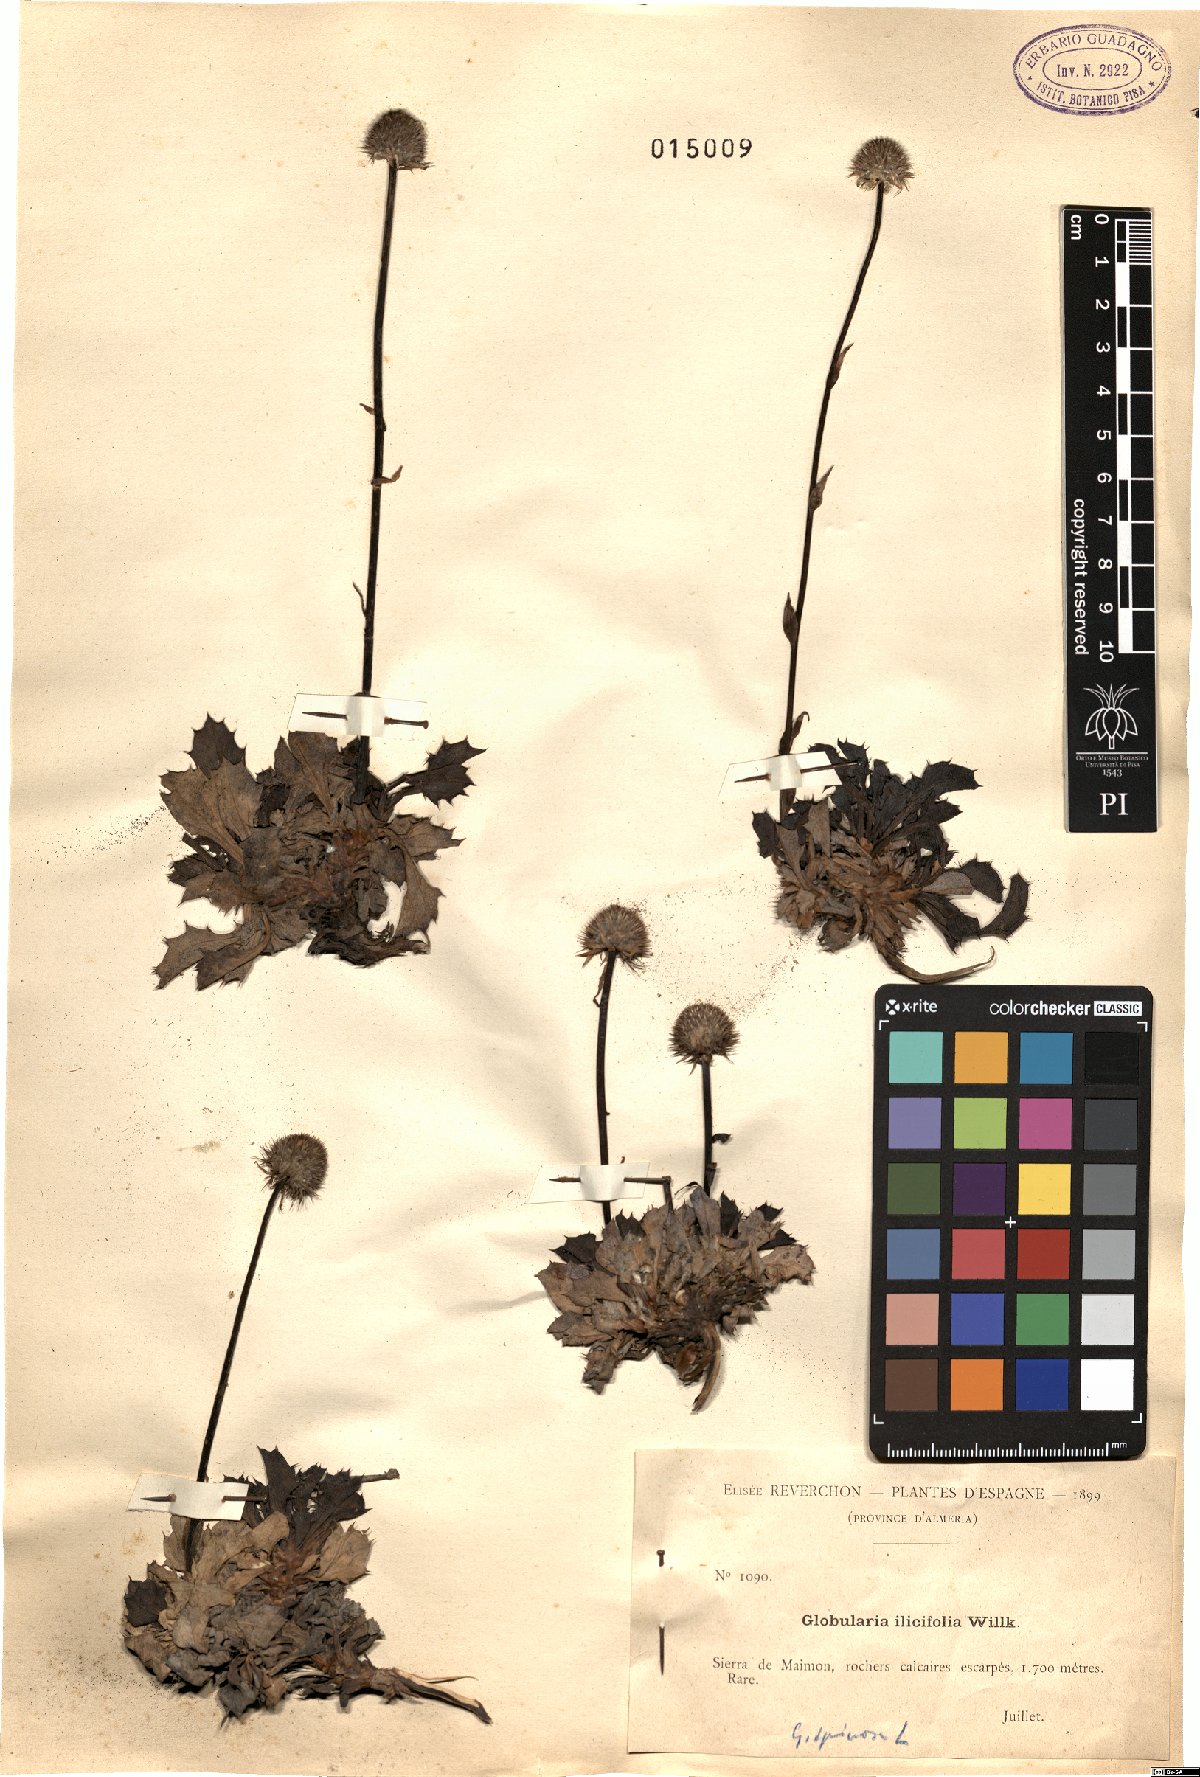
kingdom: Plantae
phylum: Tracheophyta
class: Magnoliopsida
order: Lamiales
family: Plantaginaceae
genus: Globularia
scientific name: Globularia spinosa
